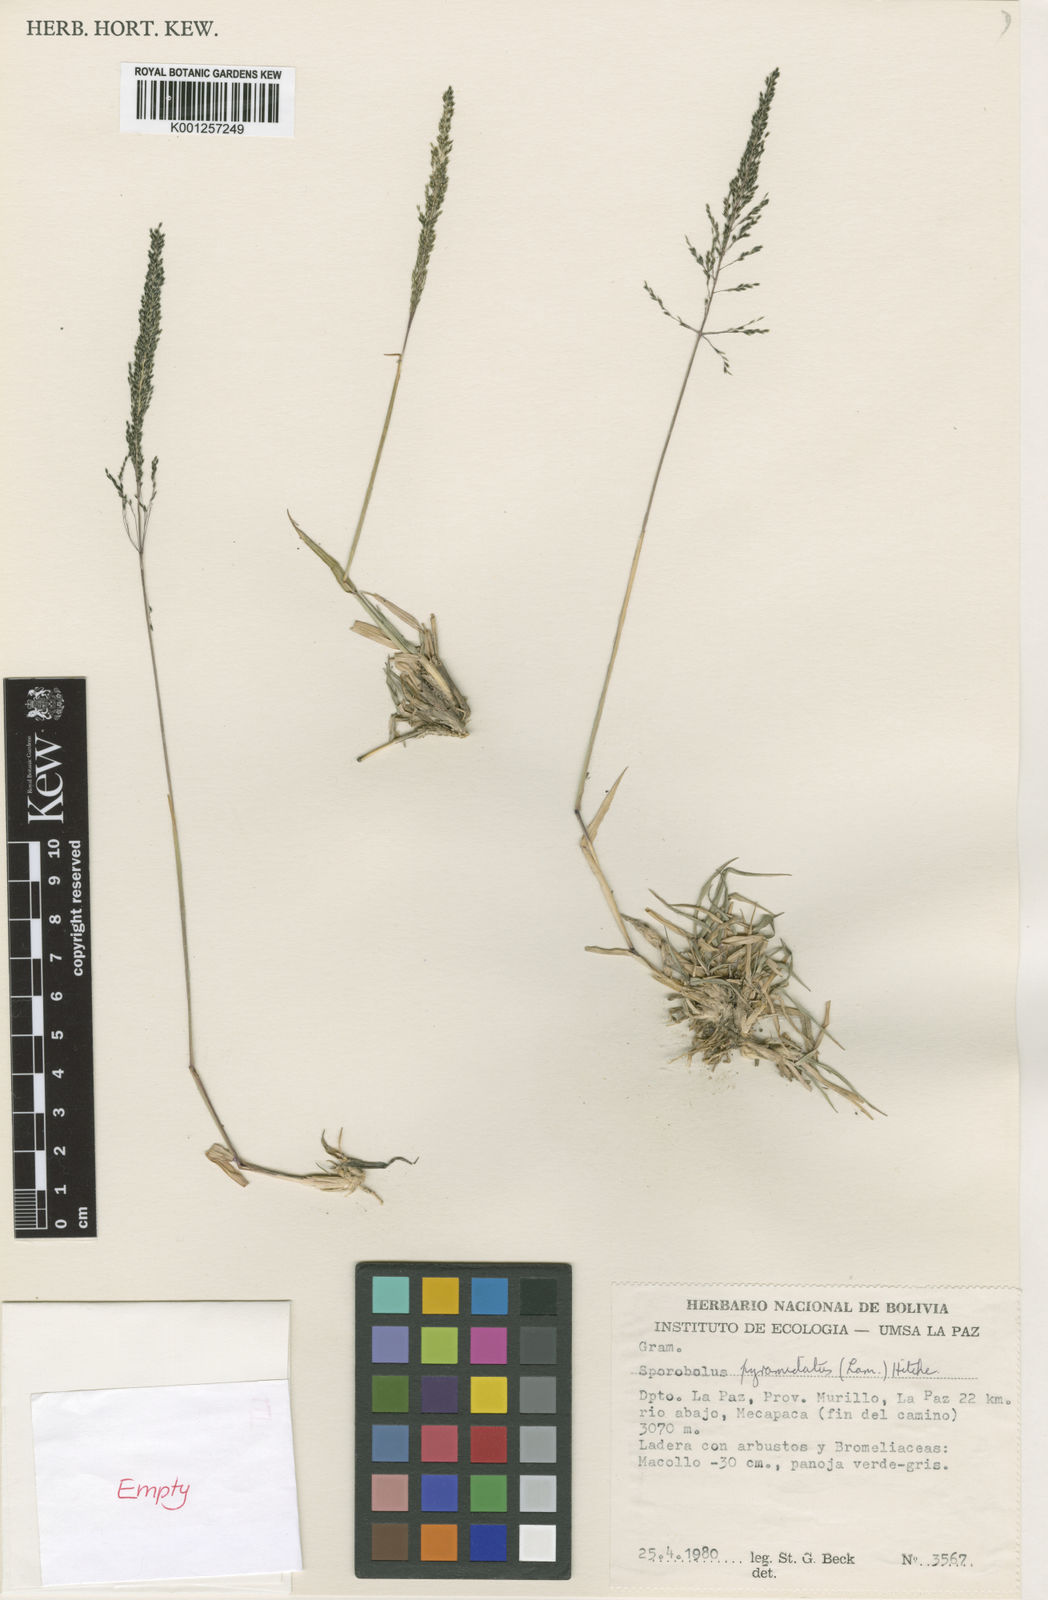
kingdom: Plantae
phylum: Tracheophyta
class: Liliopsida
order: Poales
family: Poaceae
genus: Sporobolus
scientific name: Sporobolus pyramidatus
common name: Whorled dropseed
